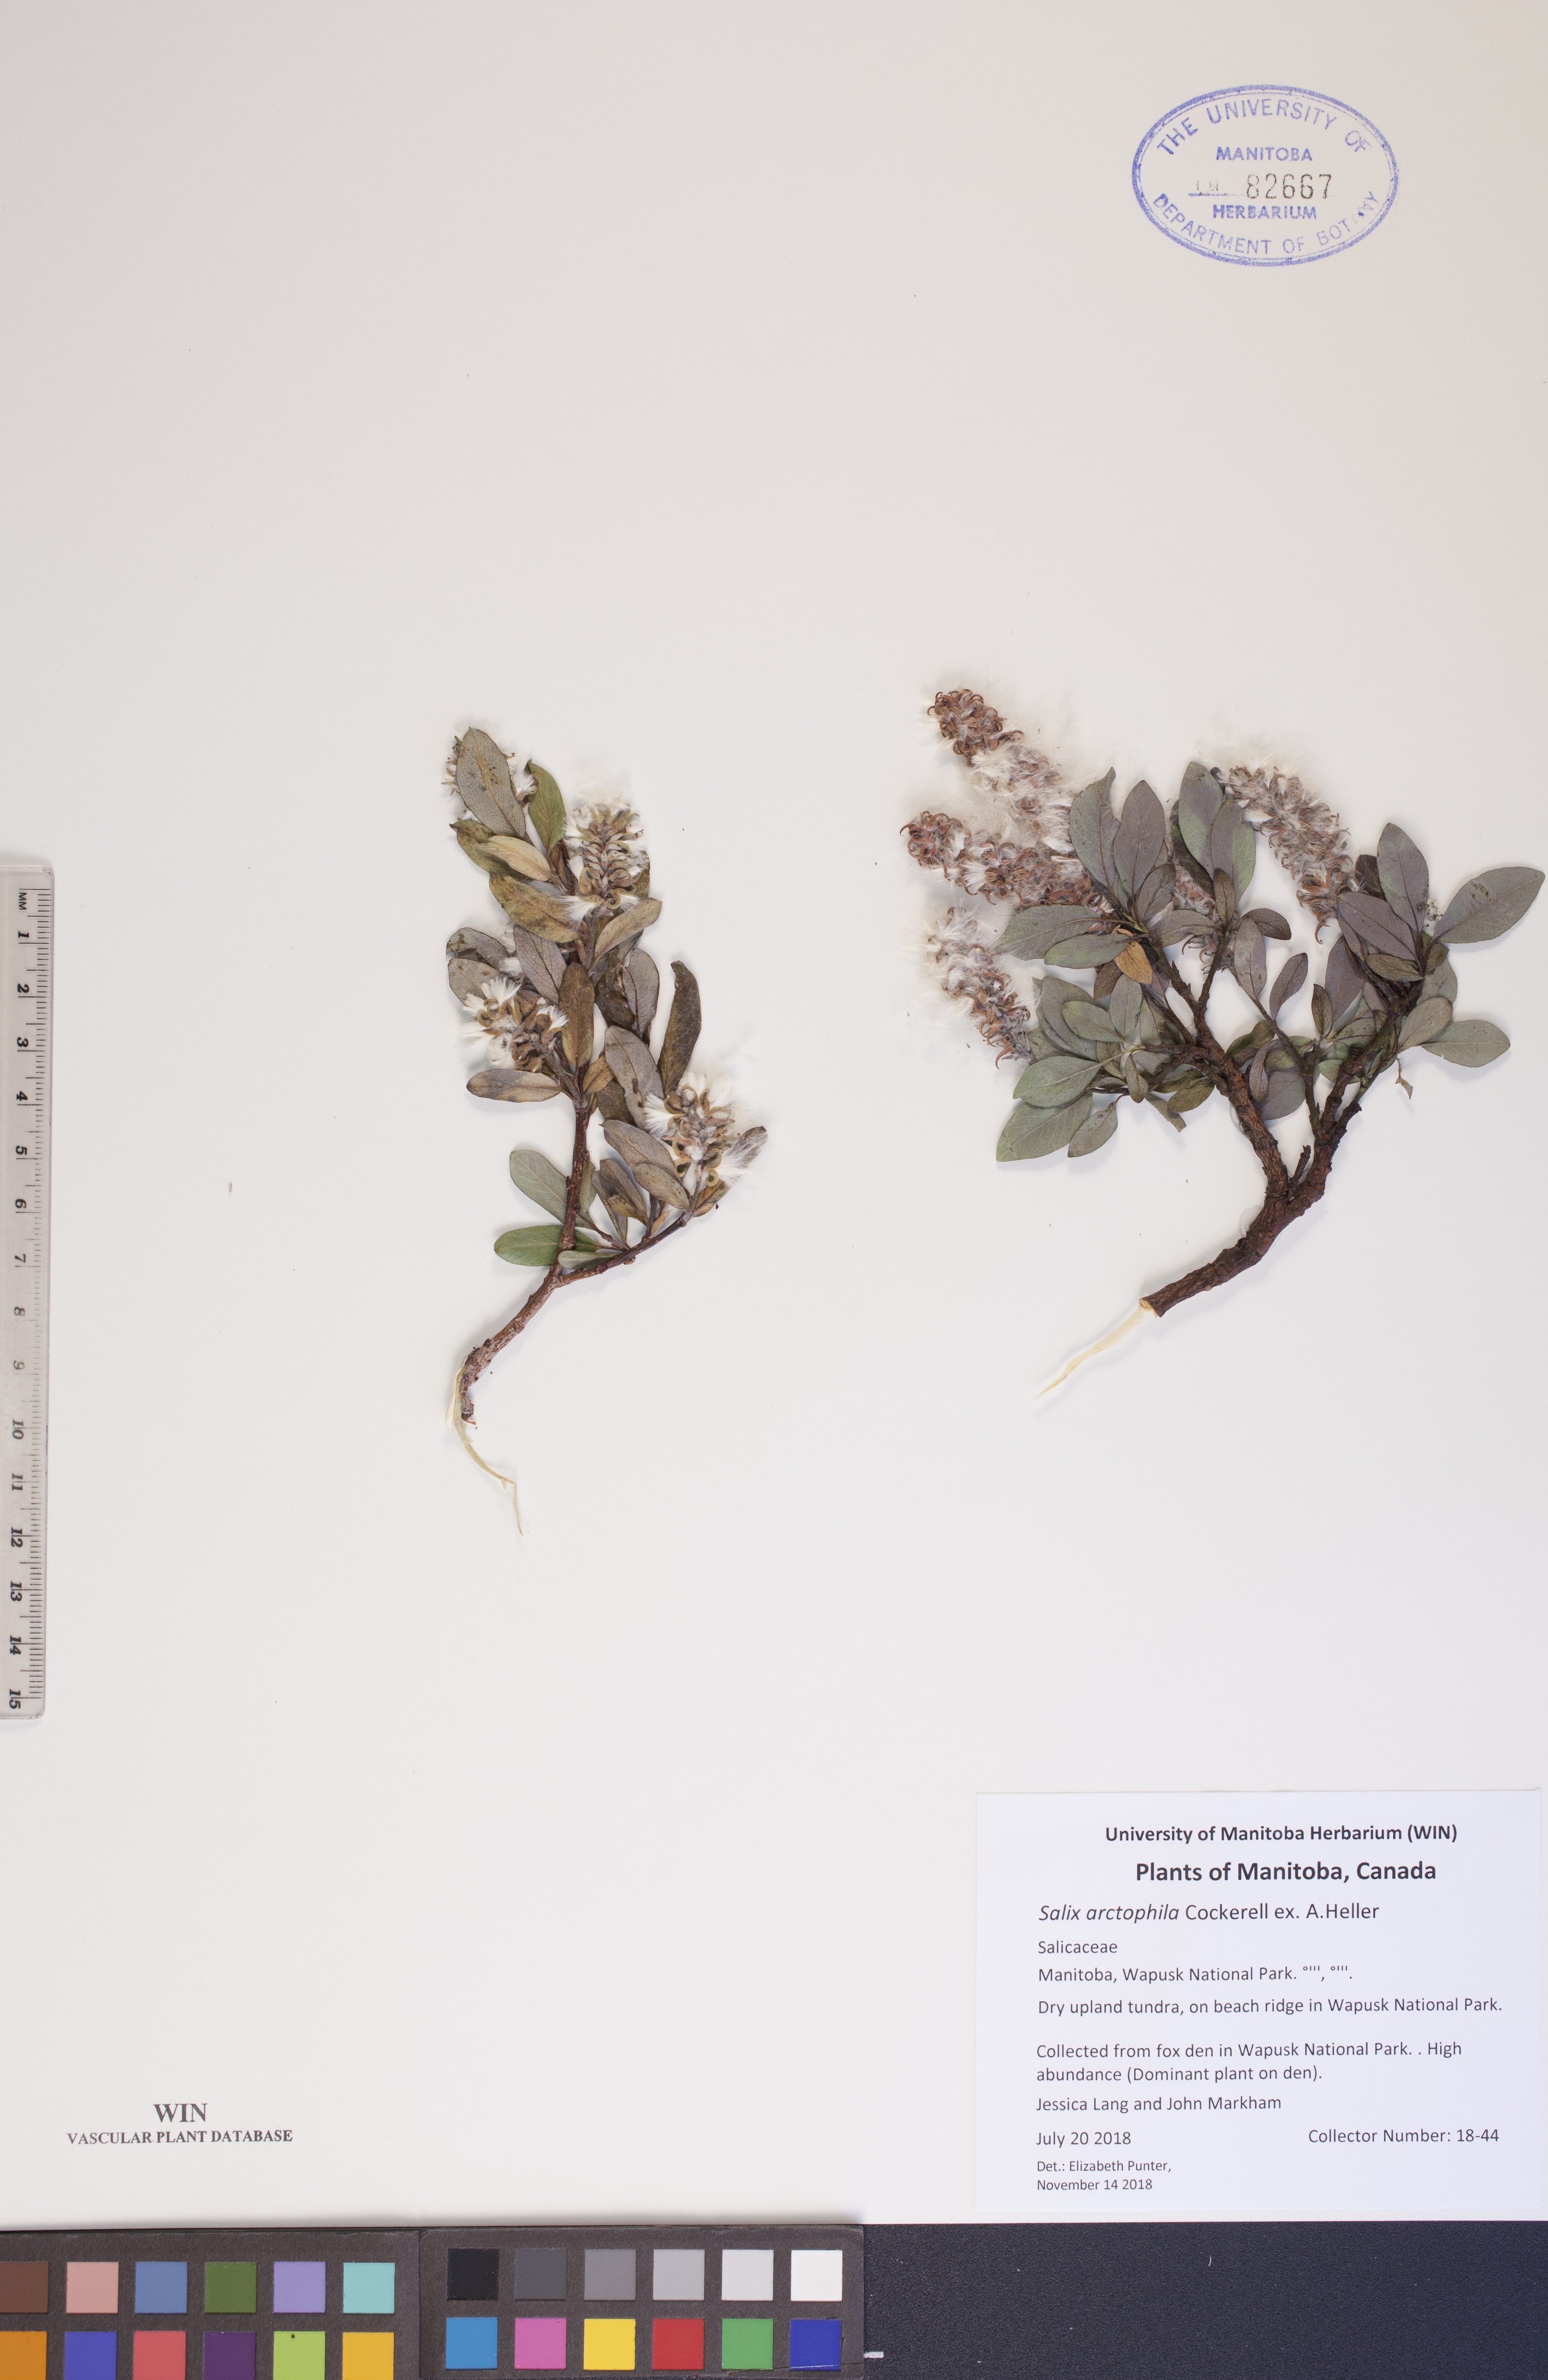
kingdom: Plantae
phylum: Tracheophyta
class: Magnoliopsida
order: Malpighiales
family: Salicaceae
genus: Salix
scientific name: Salix arctophila
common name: Greenland willow
